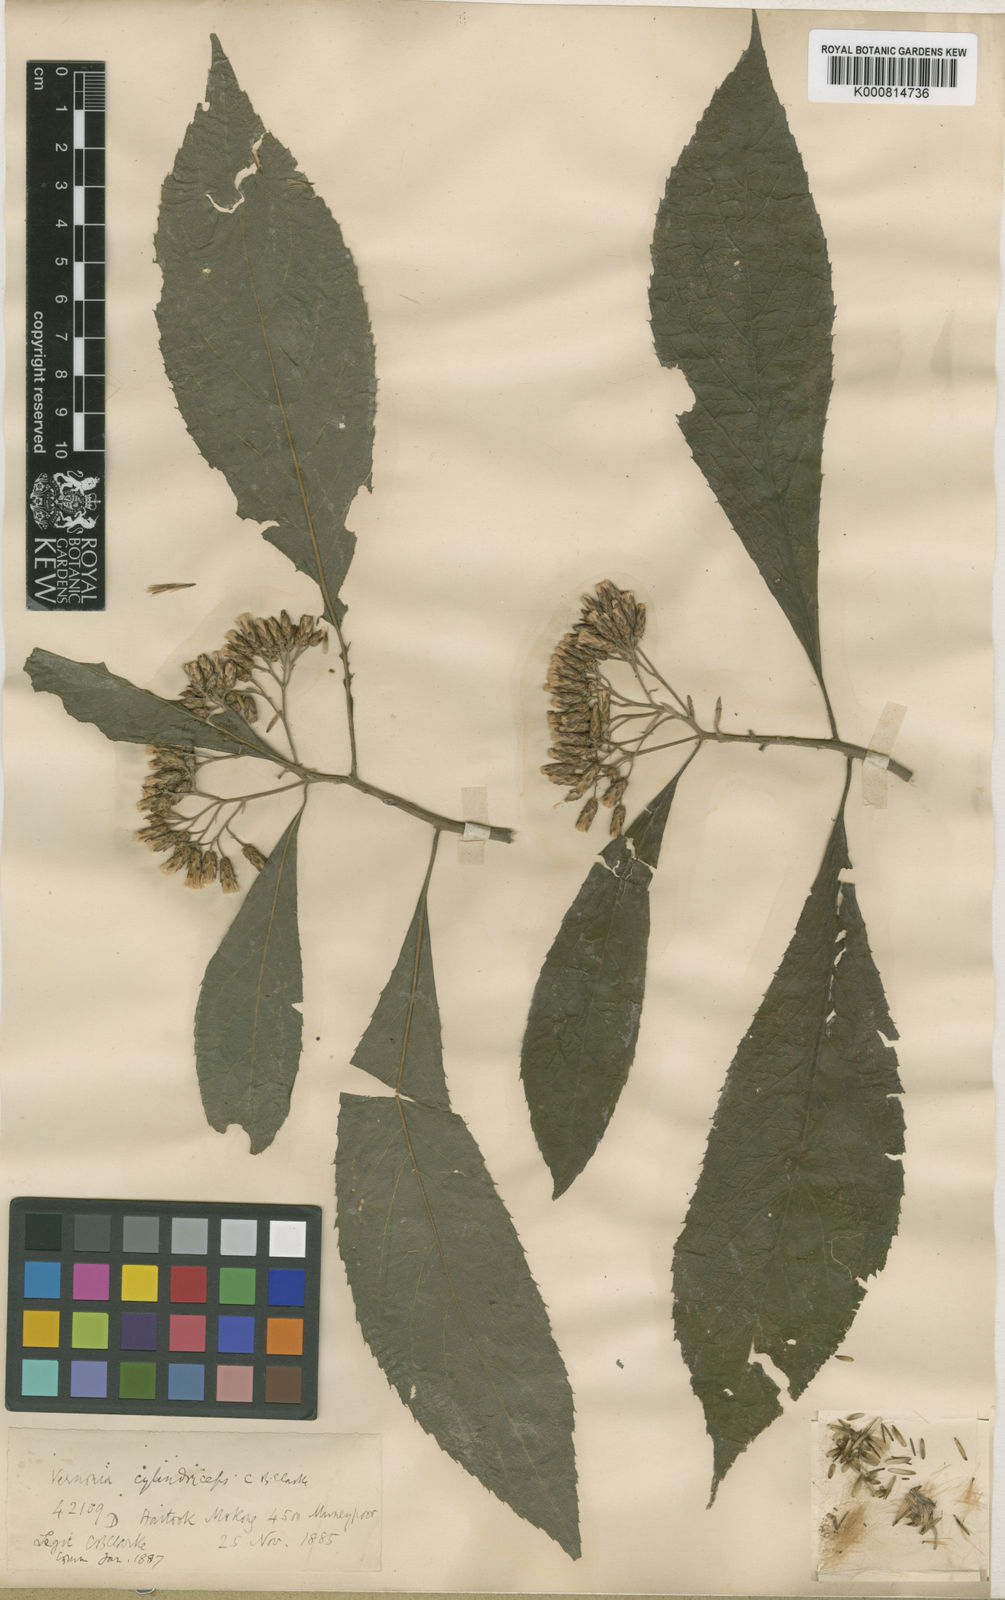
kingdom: Plantae
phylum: Tracheophyta
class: Magnoliopsida
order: Asterales
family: Asteraceae
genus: Gymnanthemum
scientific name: Gymnanthemum extensum
